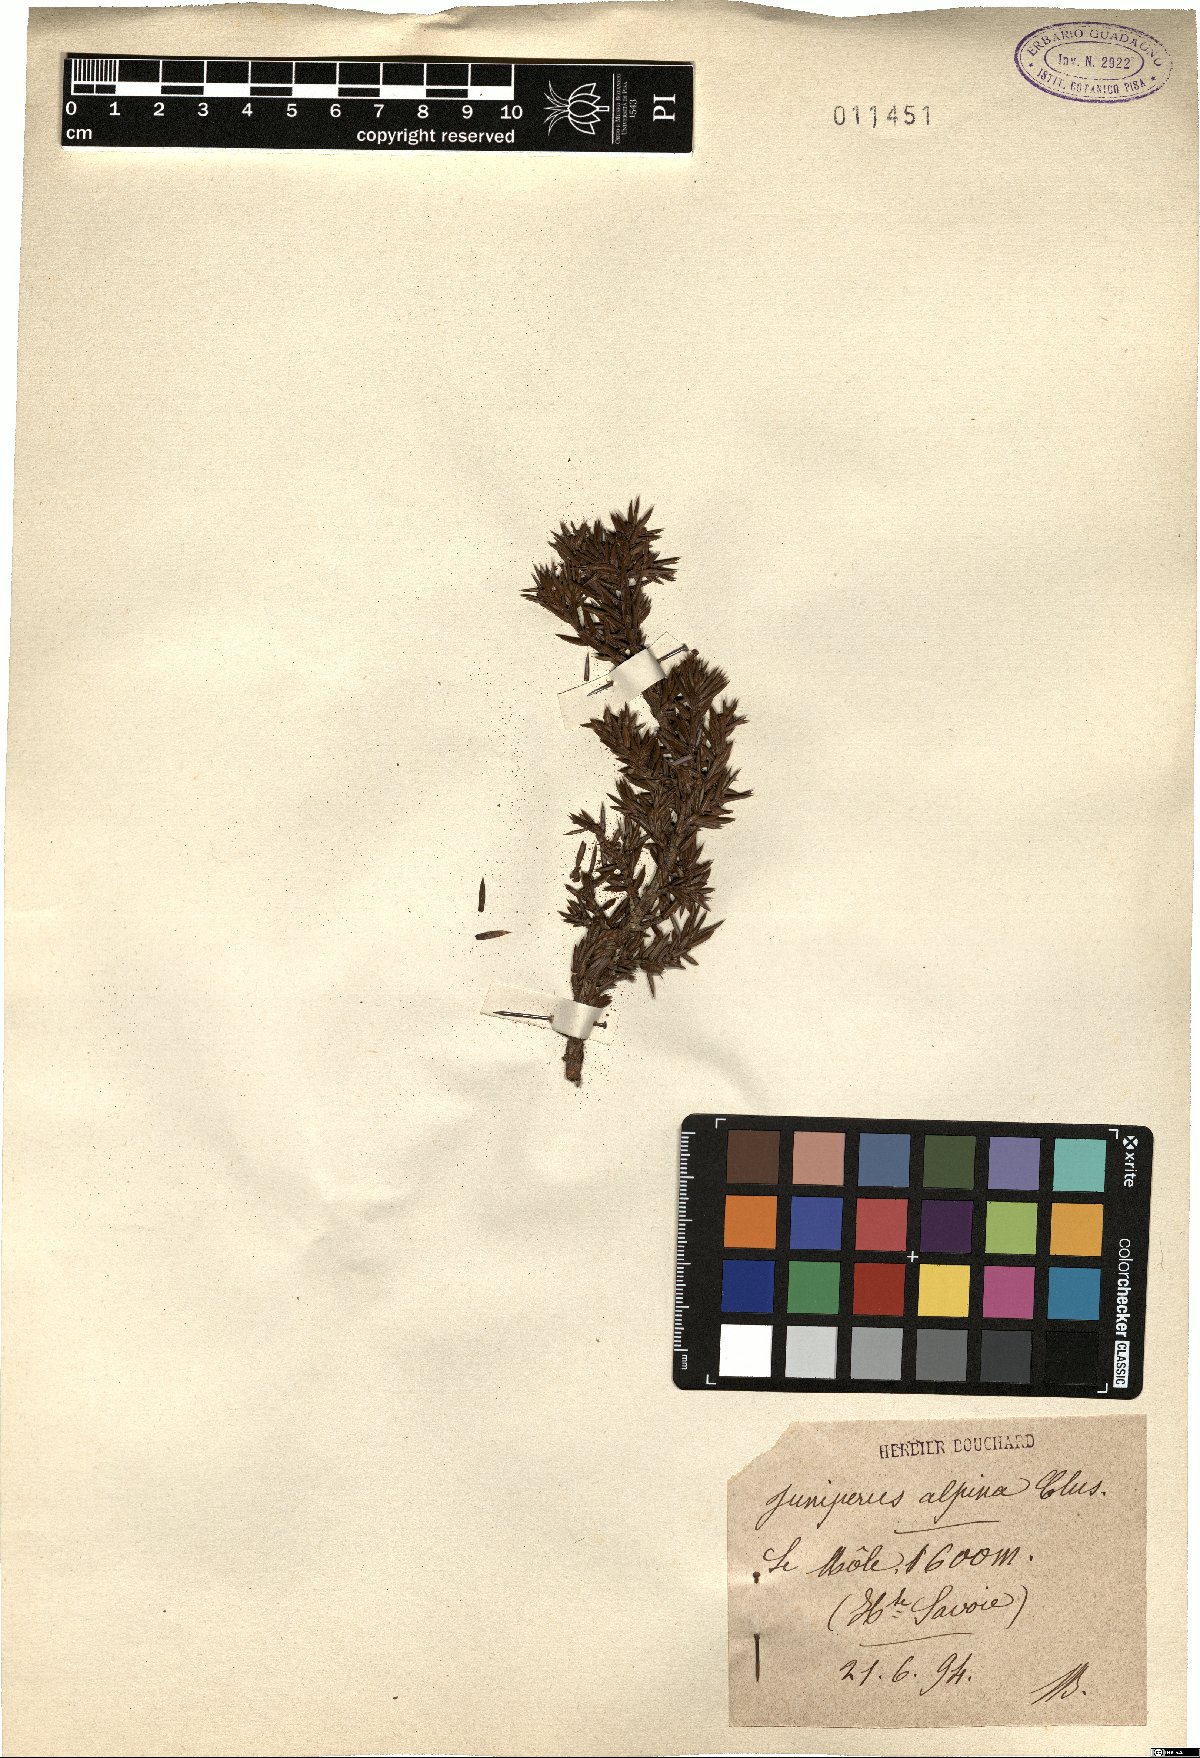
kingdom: Plantae
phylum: Tracheophyta
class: Pinopsida
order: Pinales
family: Cupressaceae
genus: Juniperus
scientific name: Juniperus communis
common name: Common juniper
